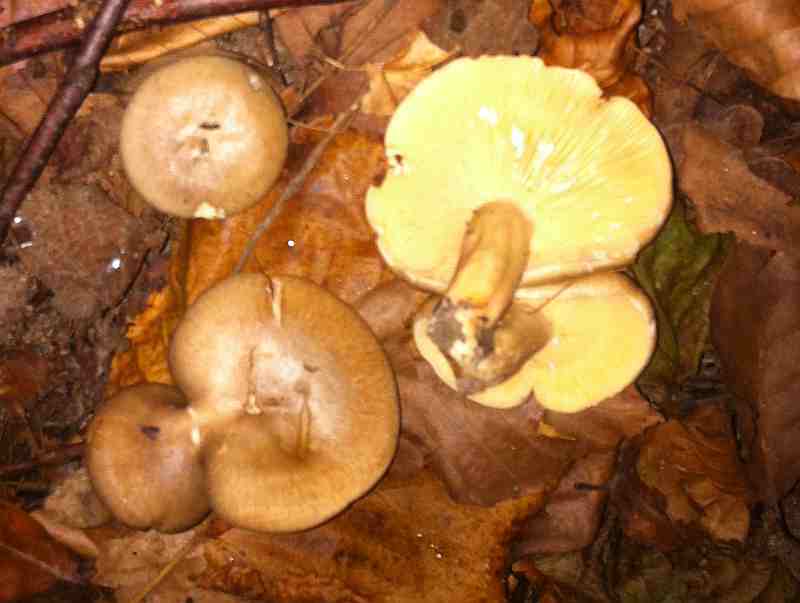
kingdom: Fungi
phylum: Basidiomycota
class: Agaricomycetes
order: Russulales
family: Russulaceae
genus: Lactarius
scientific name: Lactarius pyrogalus
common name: hassel-mælkehat
